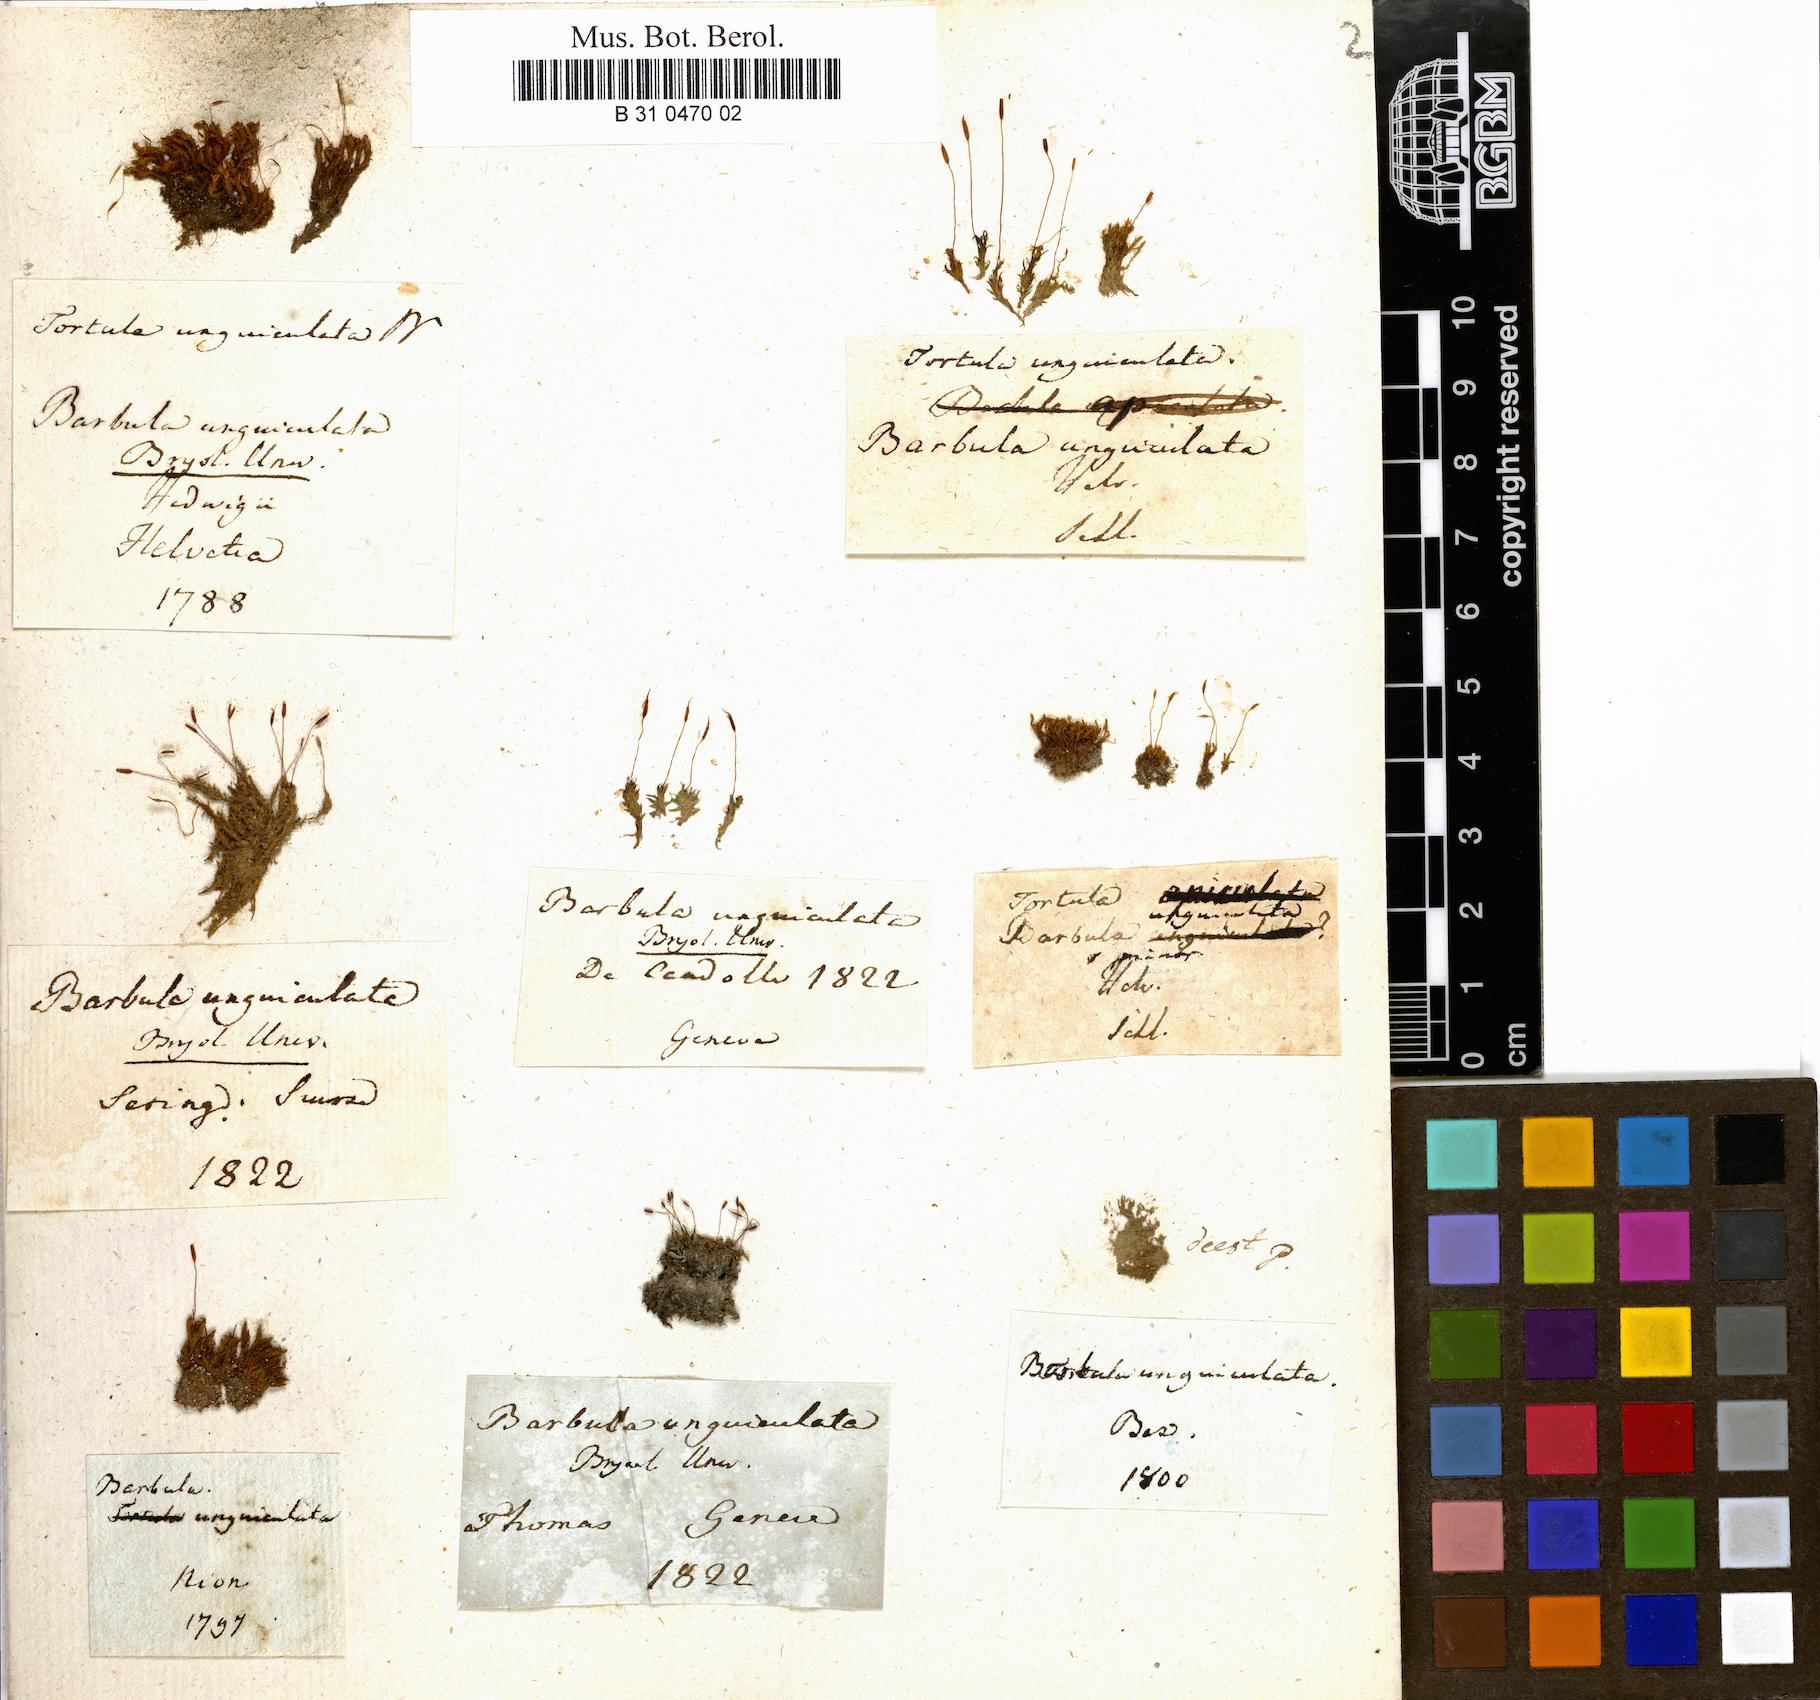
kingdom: Plantae
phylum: Bryophyta
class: Bryopsida
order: Pottiales
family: Pottiaceae
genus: Barbula
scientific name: Barbula unguiculata
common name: Prickly beard moss
